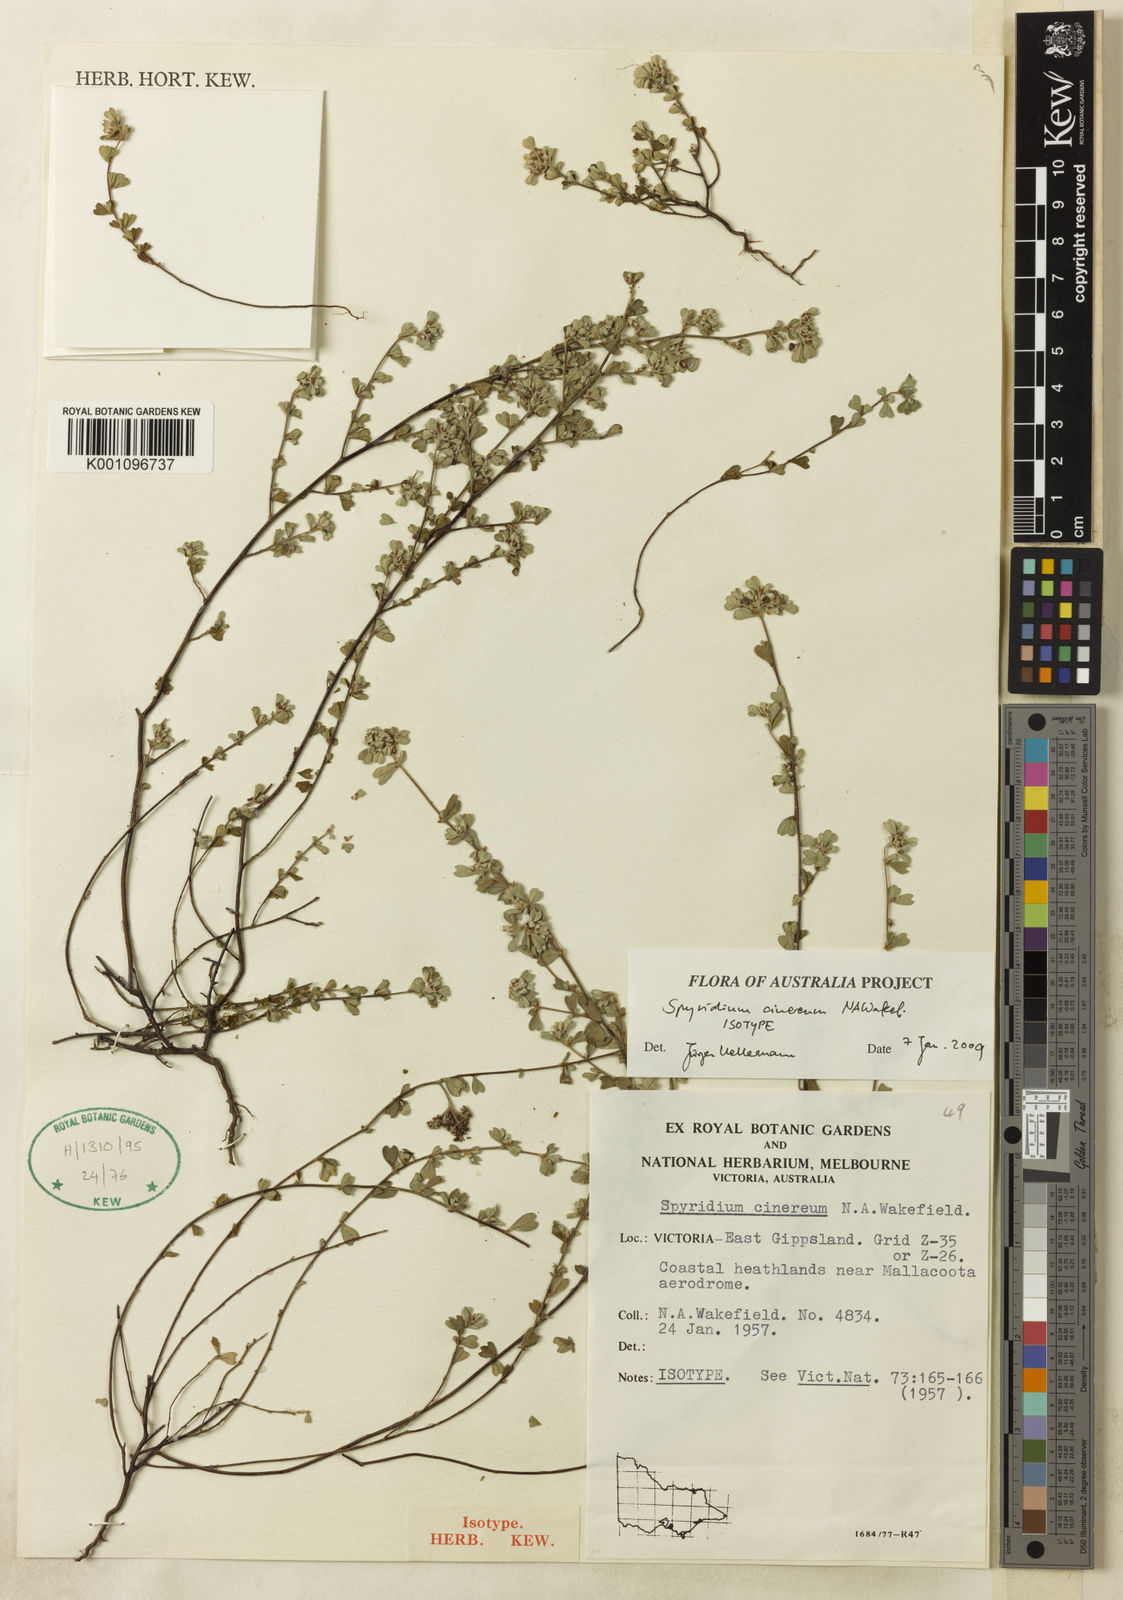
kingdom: Plantae
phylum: Tracheophyta
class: Magnoliopsida
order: Rosales
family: Rhamnaceae
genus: Spyridium
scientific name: Spyridium cinereum
